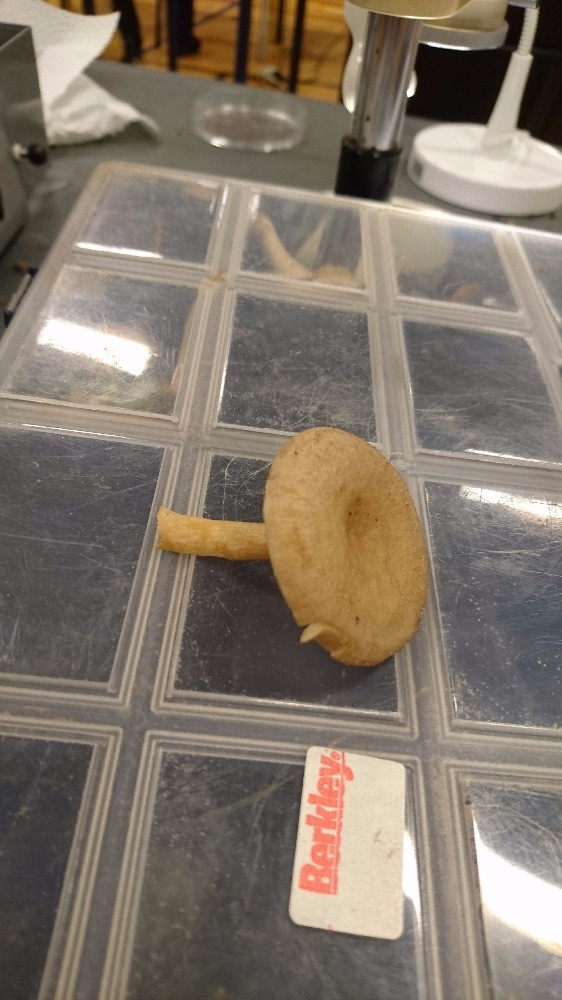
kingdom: Fungi
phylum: Basidiomycota
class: Agaricomycetes
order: Russulales
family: Russulaceae
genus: Lactarius
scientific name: Lactarius glyciosmus
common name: kokos-mælkehat
